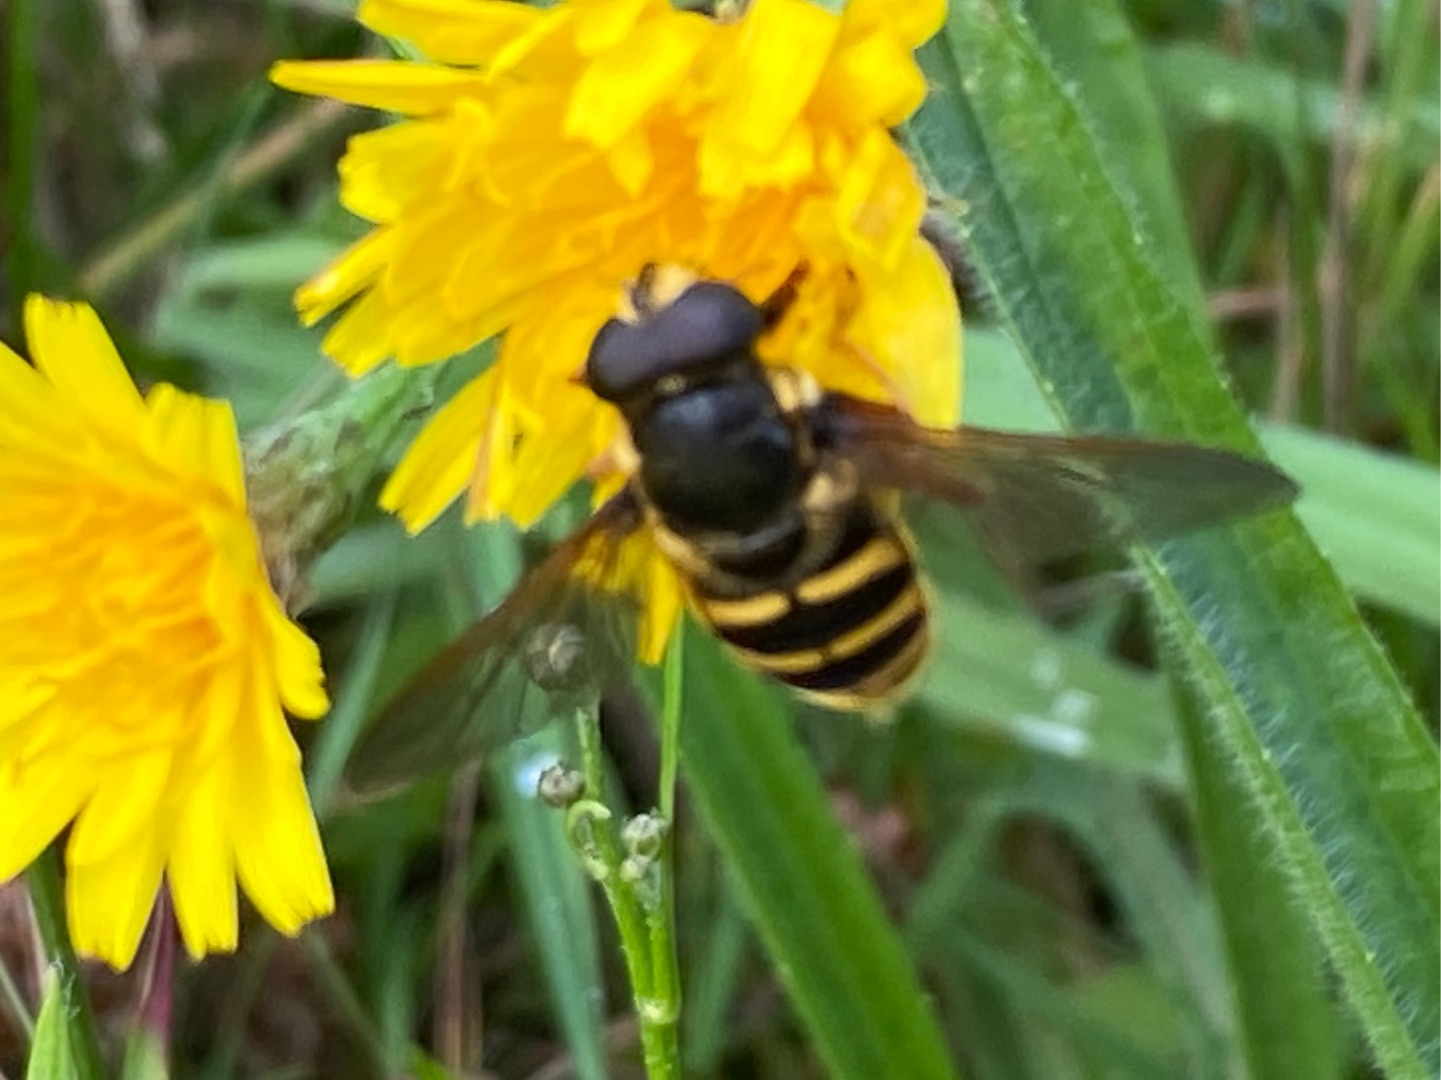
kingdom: Animalia
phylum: Arthropoda
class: Insecta
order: Diptera
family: Syrphidae
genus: Sericomyia
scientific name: Sericomyia silentis
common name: Tørve-silkesvirreflue
